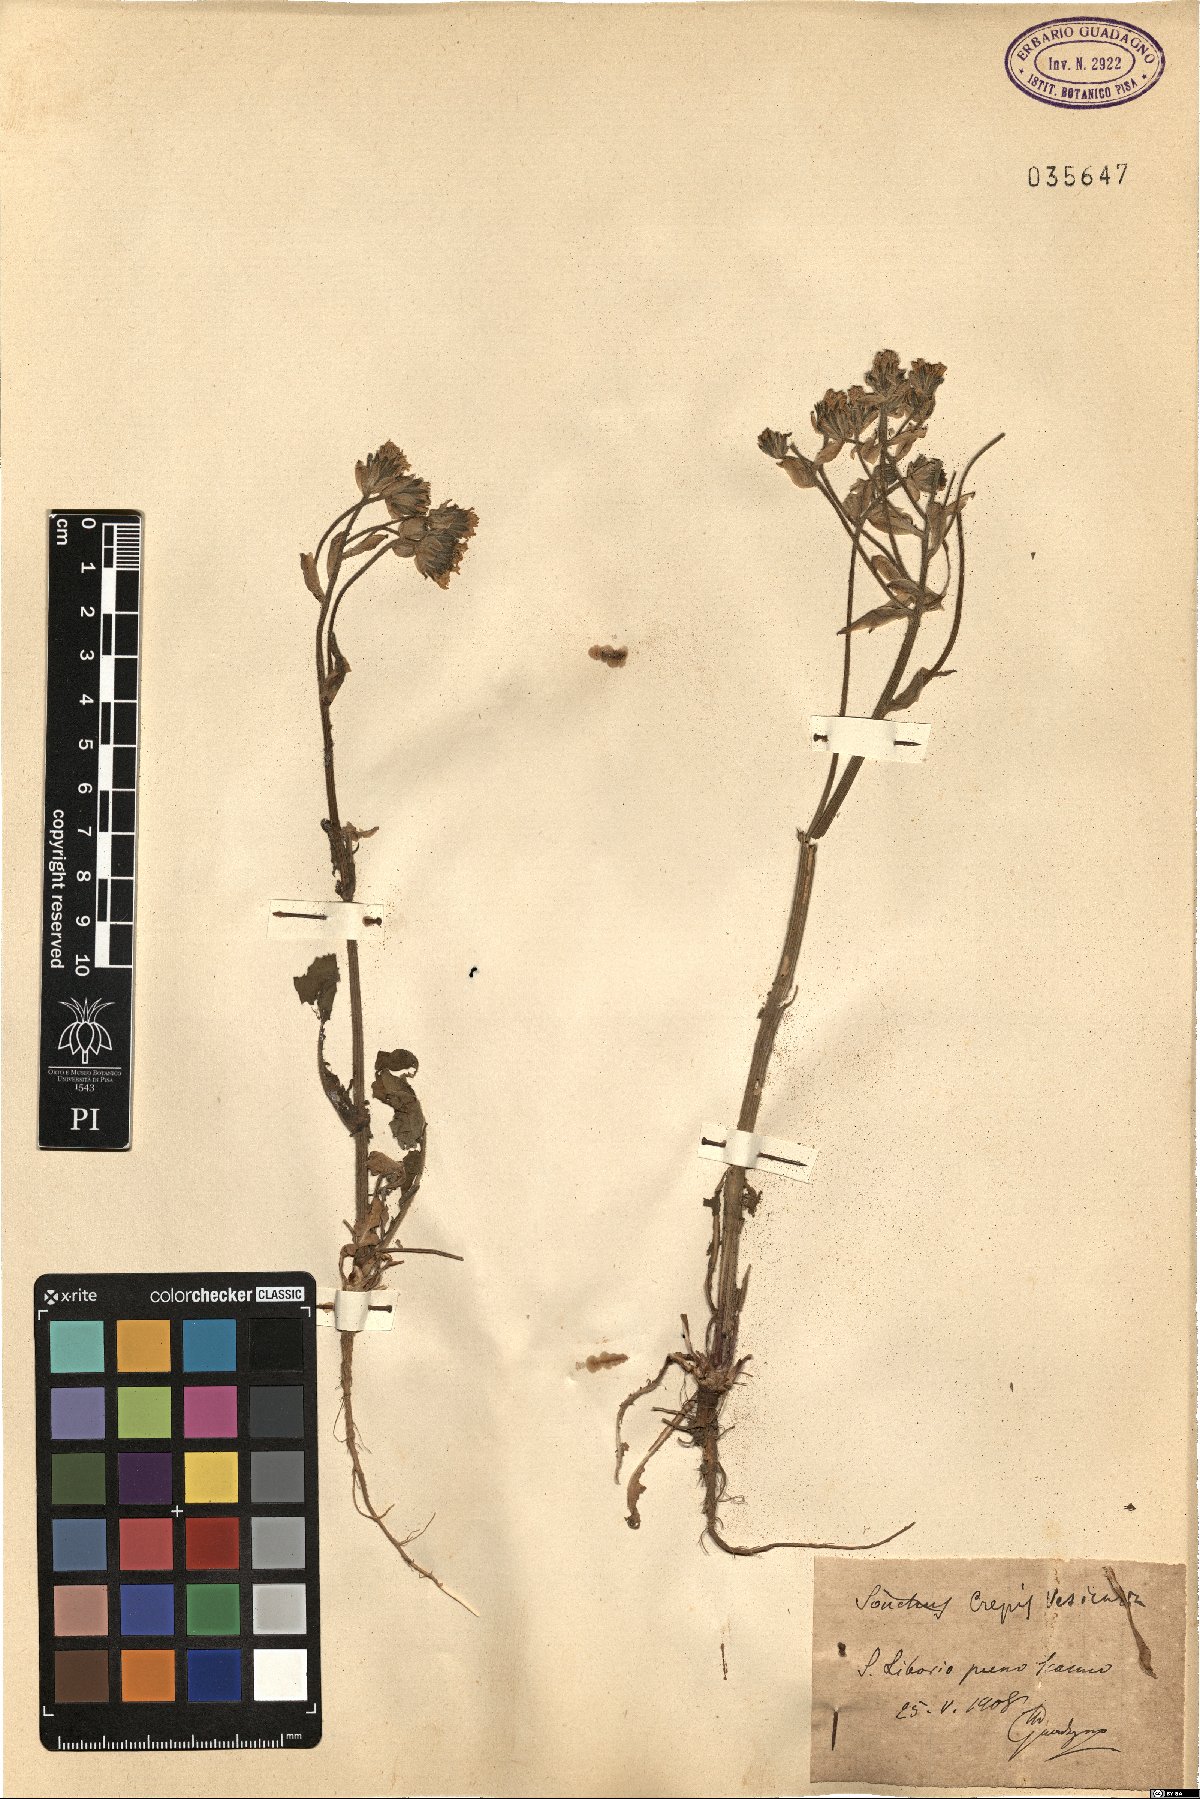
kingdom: Plantae
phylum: Tracheophyta
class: Magnoliopsida
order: Asterales
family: Asteraceae
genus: Crepis
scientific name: Crepis vesicaria
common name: Beaked hawksbeard
